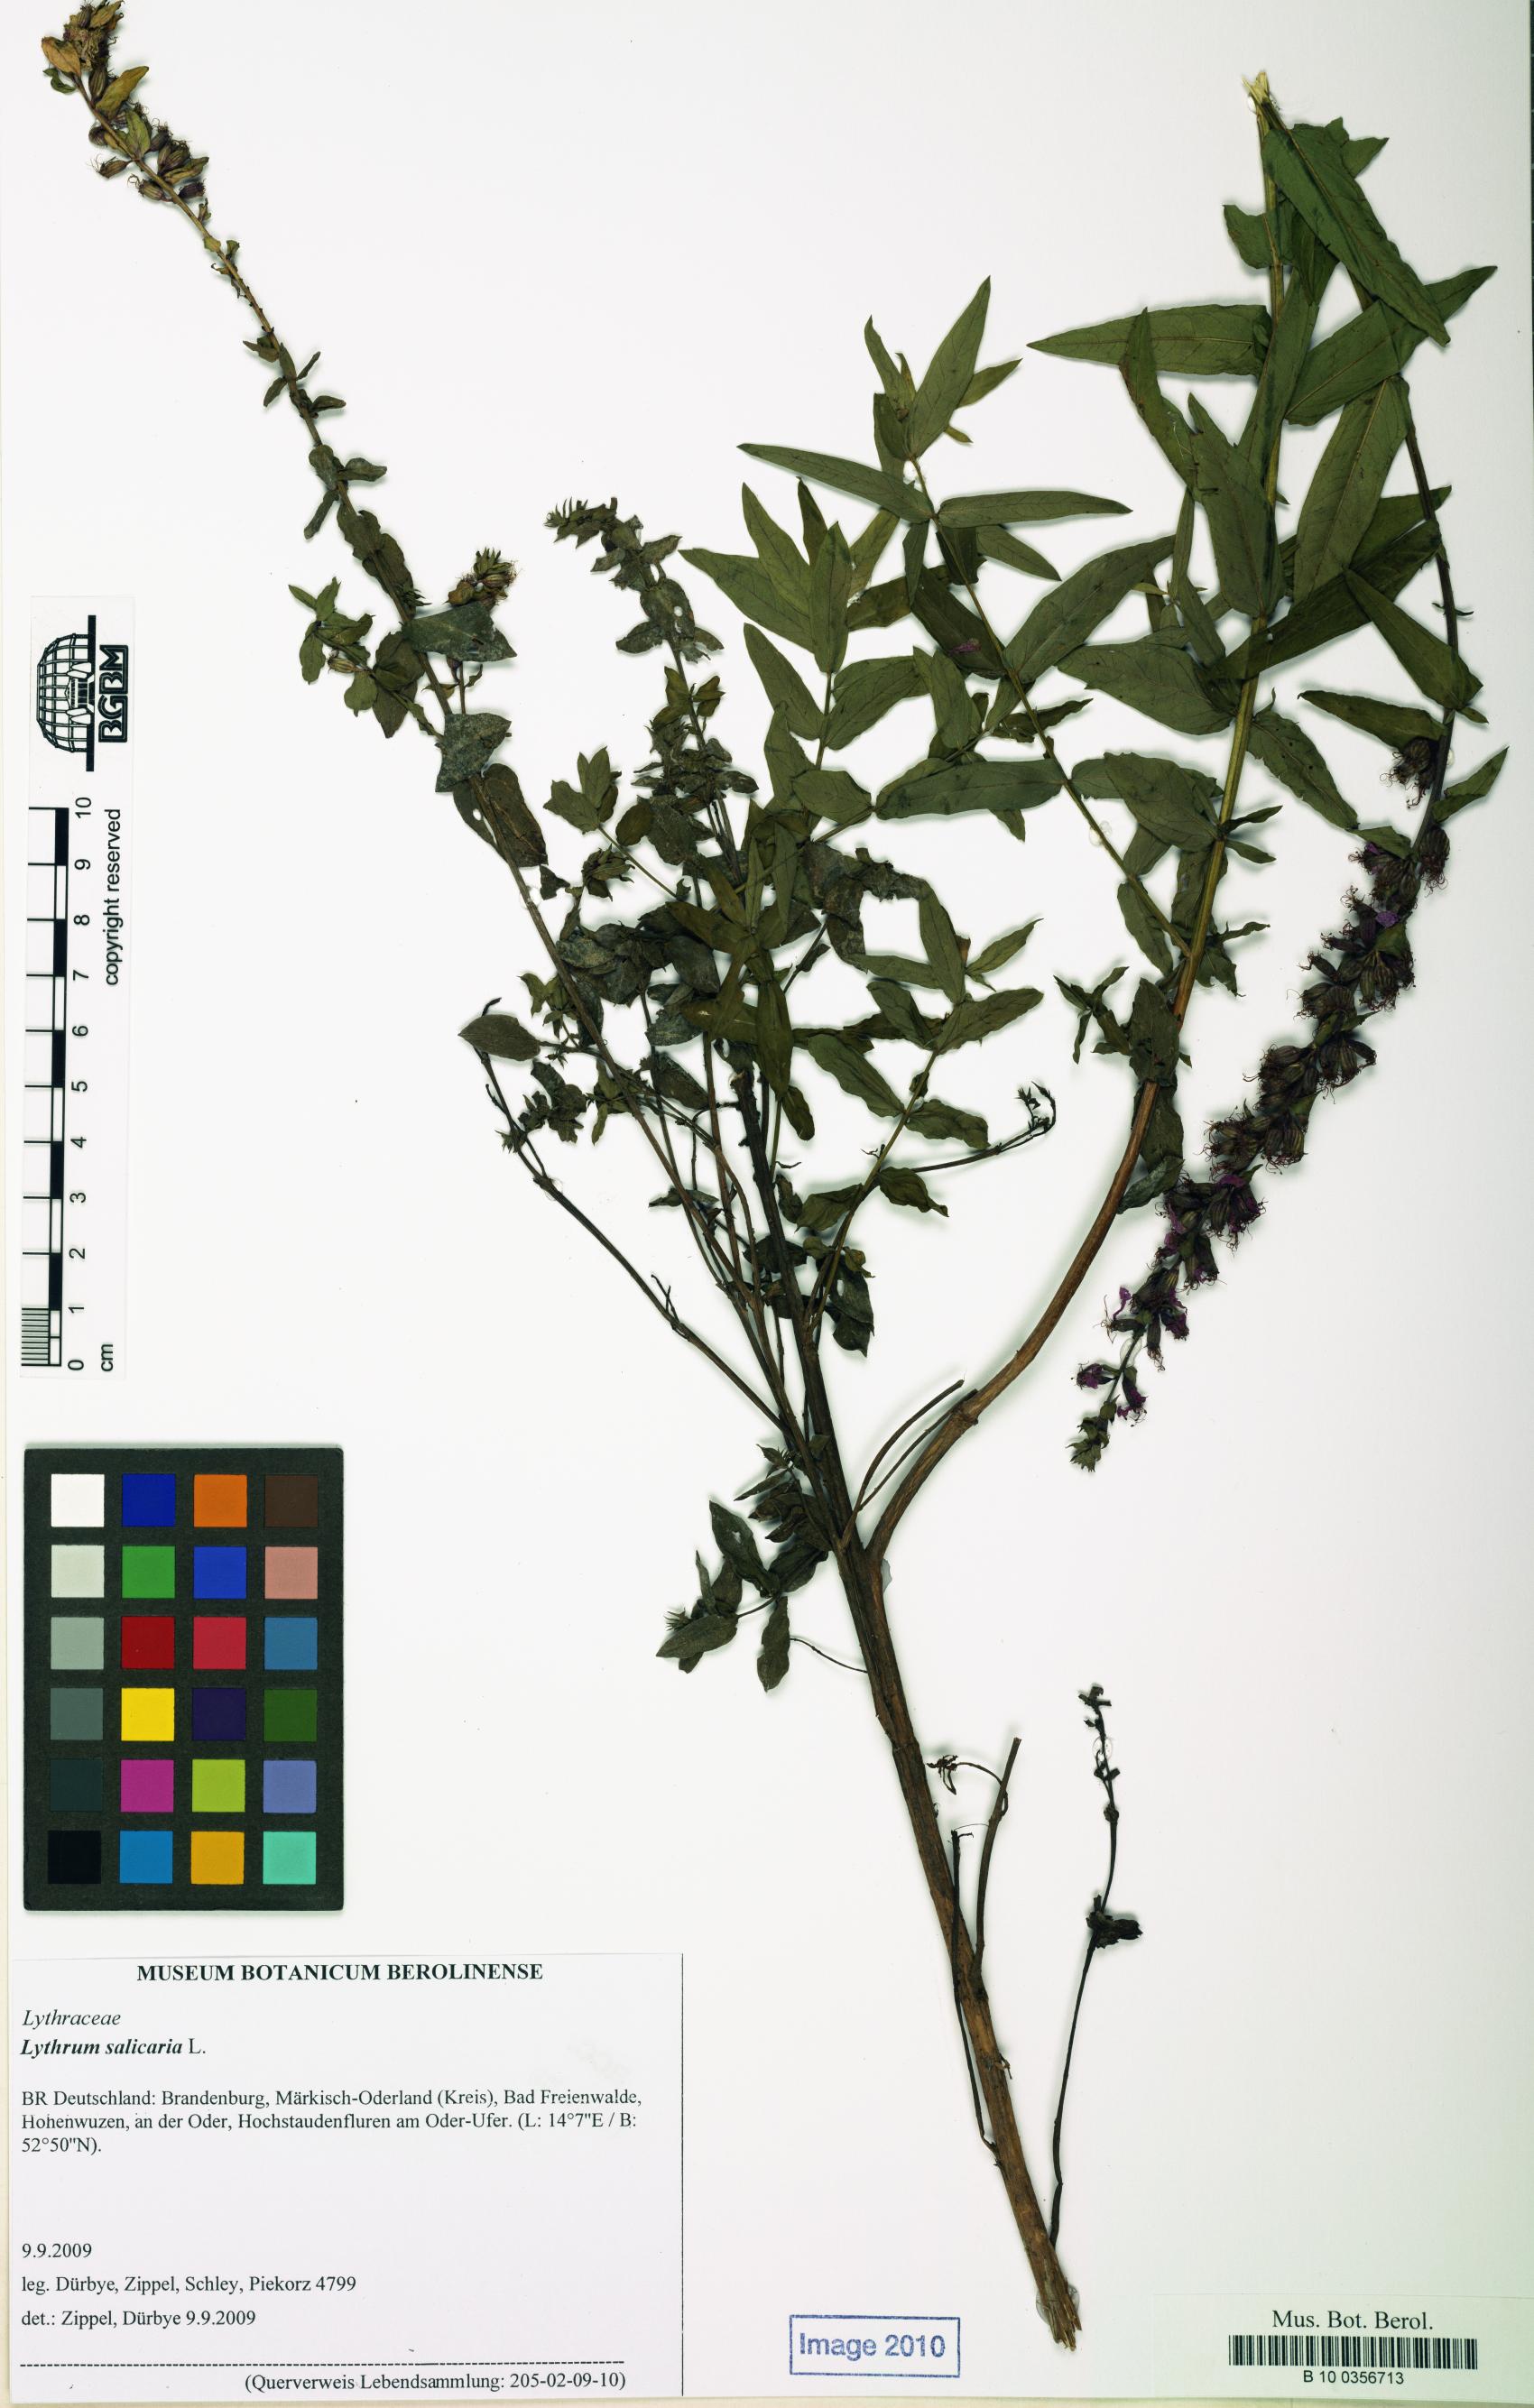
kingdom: Plantae
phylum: Tracheophyta
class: Magnoliopsida
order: Myrtales
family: Lythraceae
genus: Lythrum
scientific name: Lythrum salicaria
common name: Purple loosestrife
